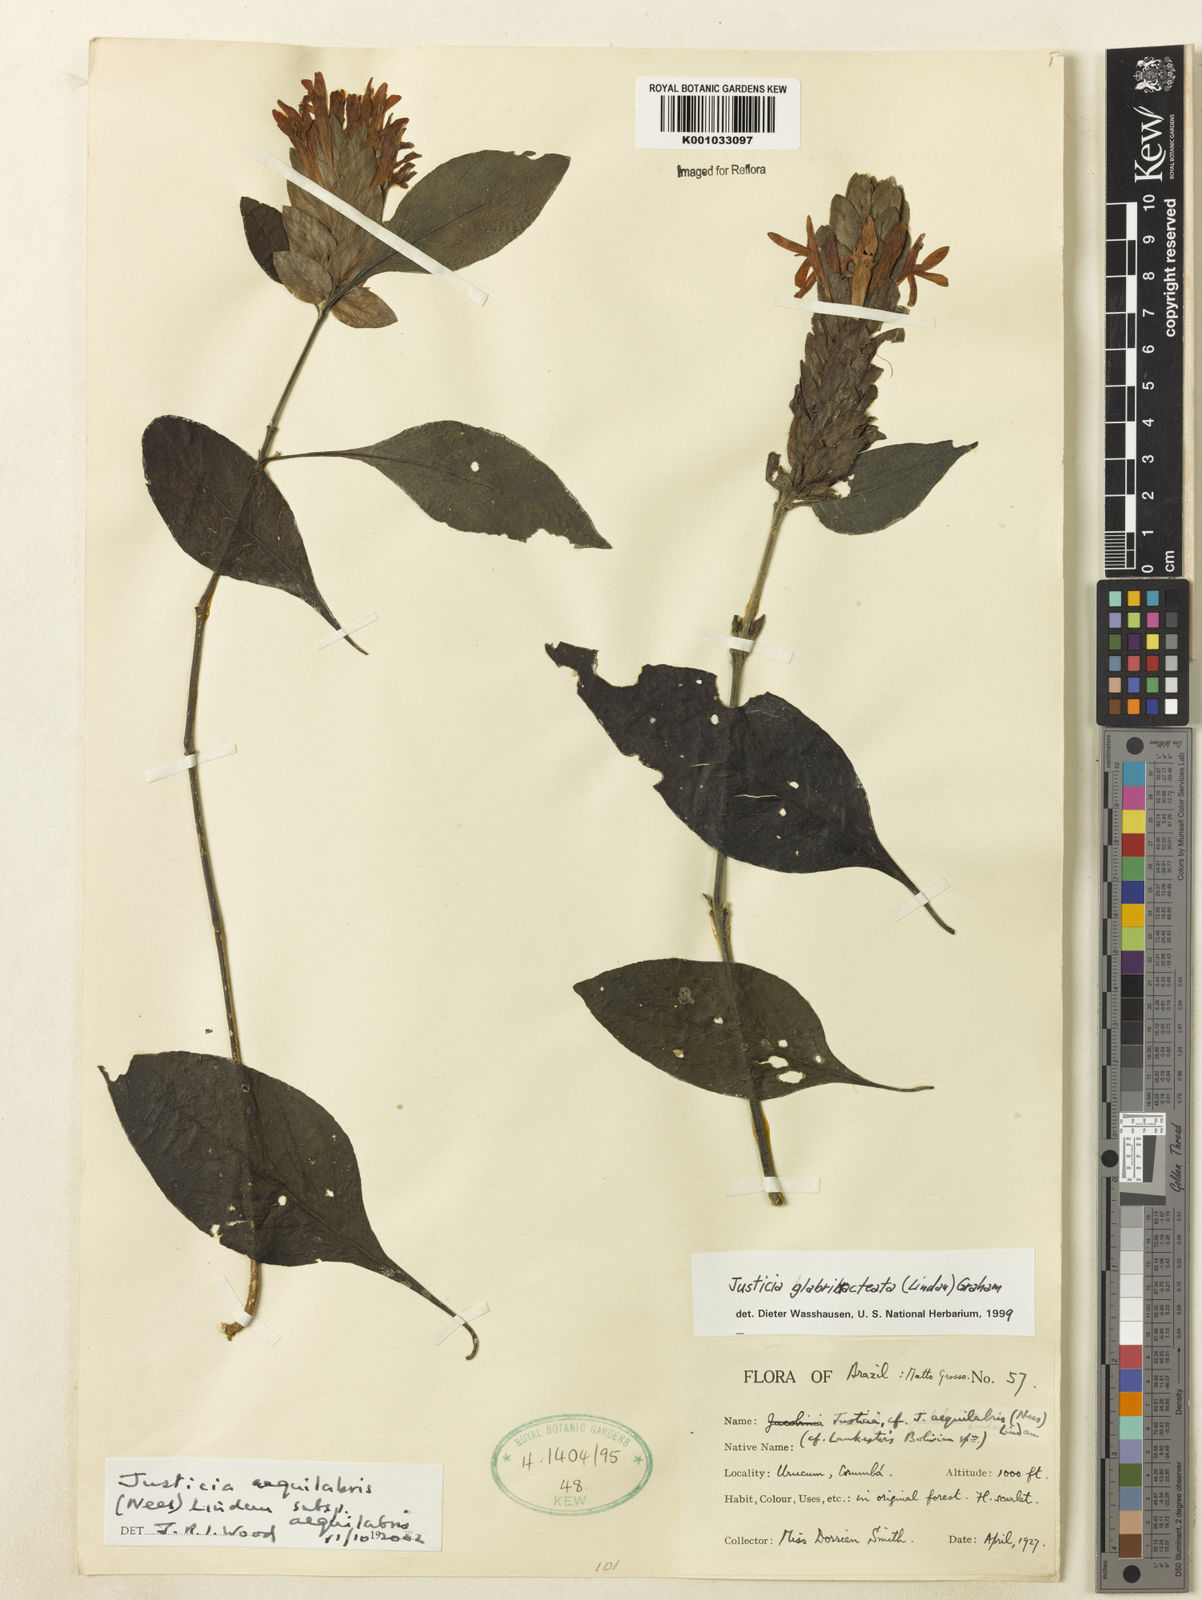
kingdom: Plantae
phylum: Tracheophyta
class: Magnoliopsida
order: Lamiales
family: Acanthaceae
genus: Justicia
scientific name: Justicia aequalis
